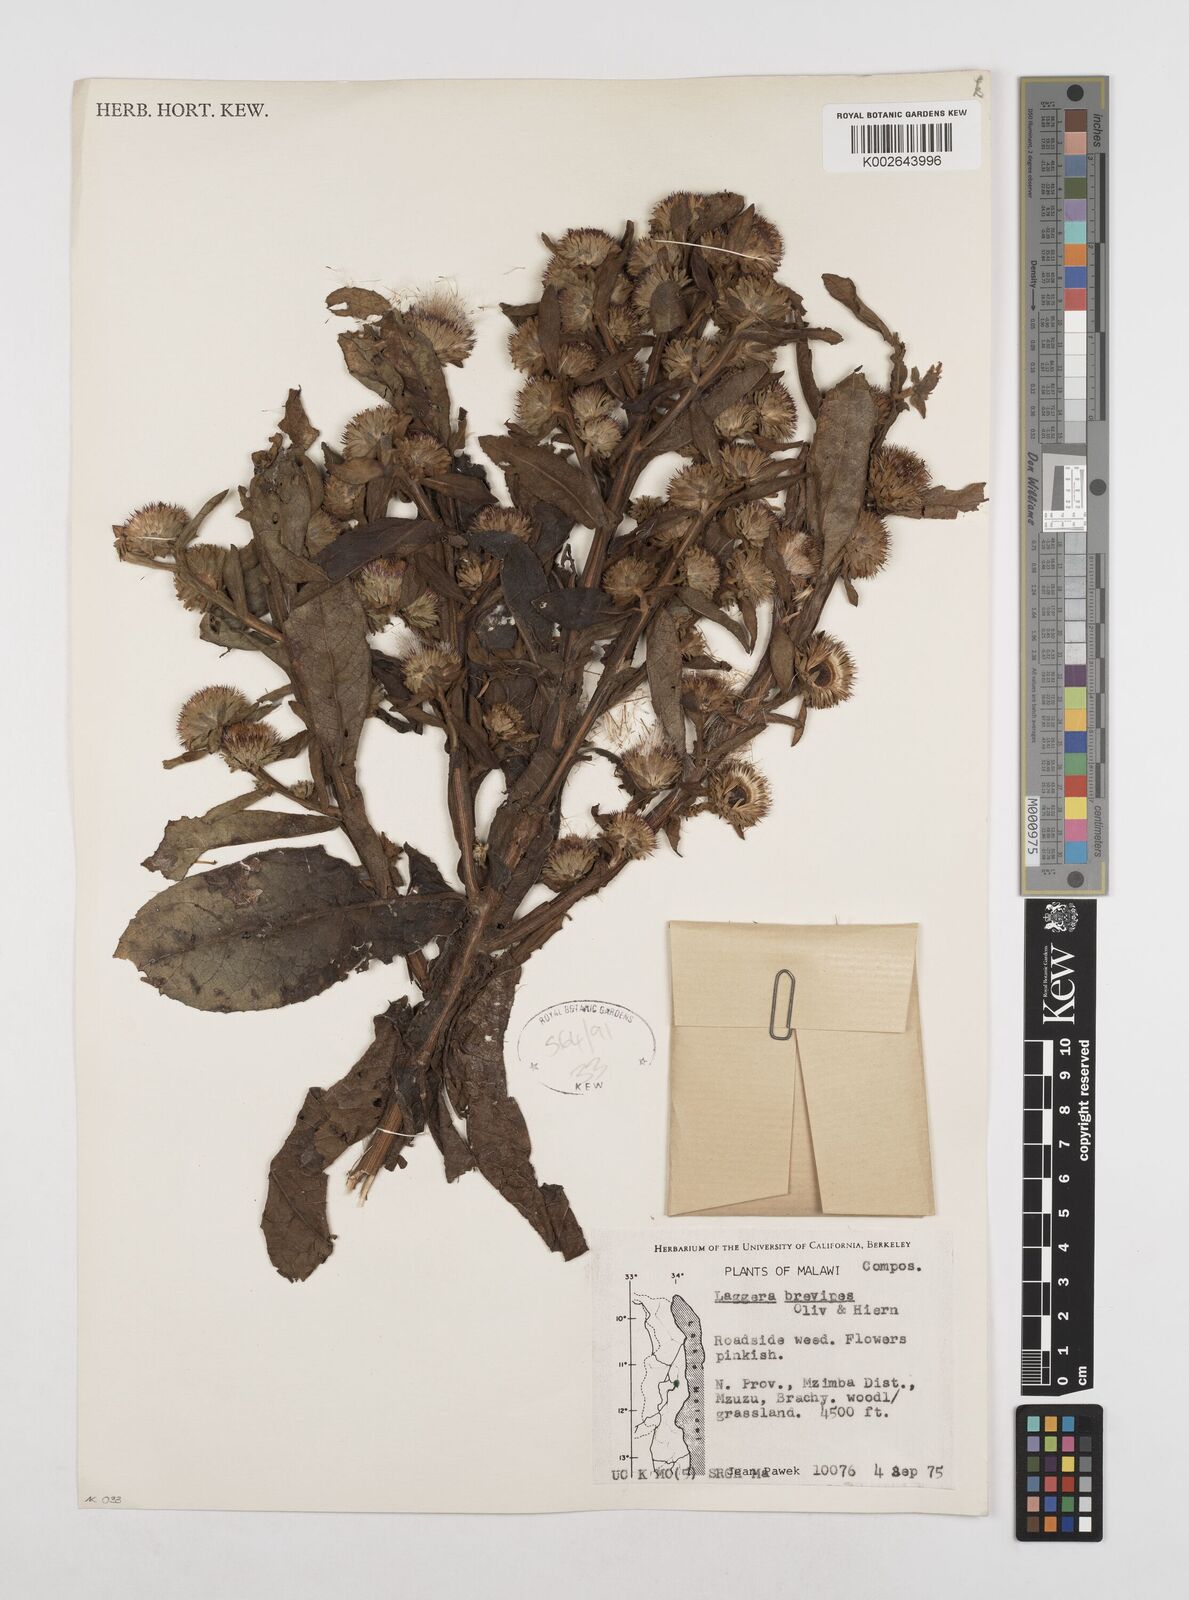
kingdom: Plantae
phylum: Tracheophyta
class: Magnoliopsida
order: Asterales
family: Asteraceae
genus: Laggera
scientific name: Laggera brevipes
